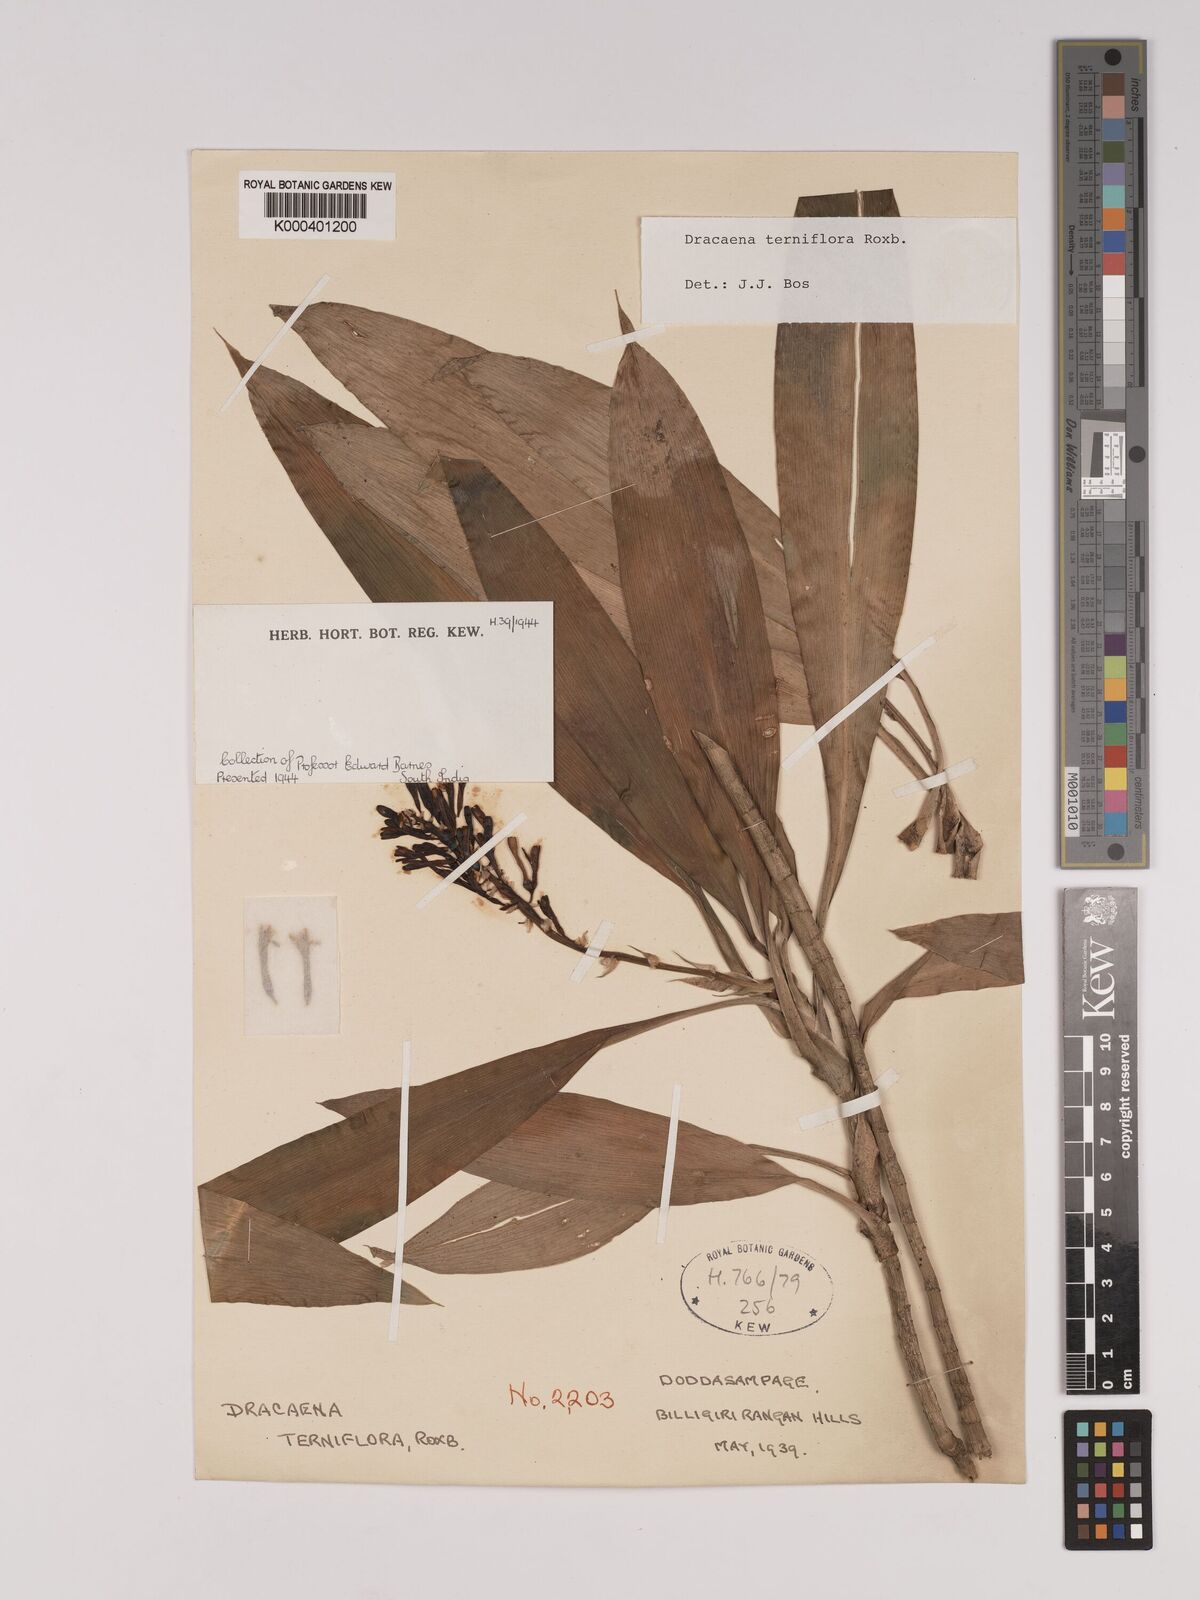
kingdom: Plantae
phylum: Tracheophyta
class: Liliopsida
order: Asparagales
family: Asparagaceae
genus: Dracaena
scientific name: Dracaena terniflora
